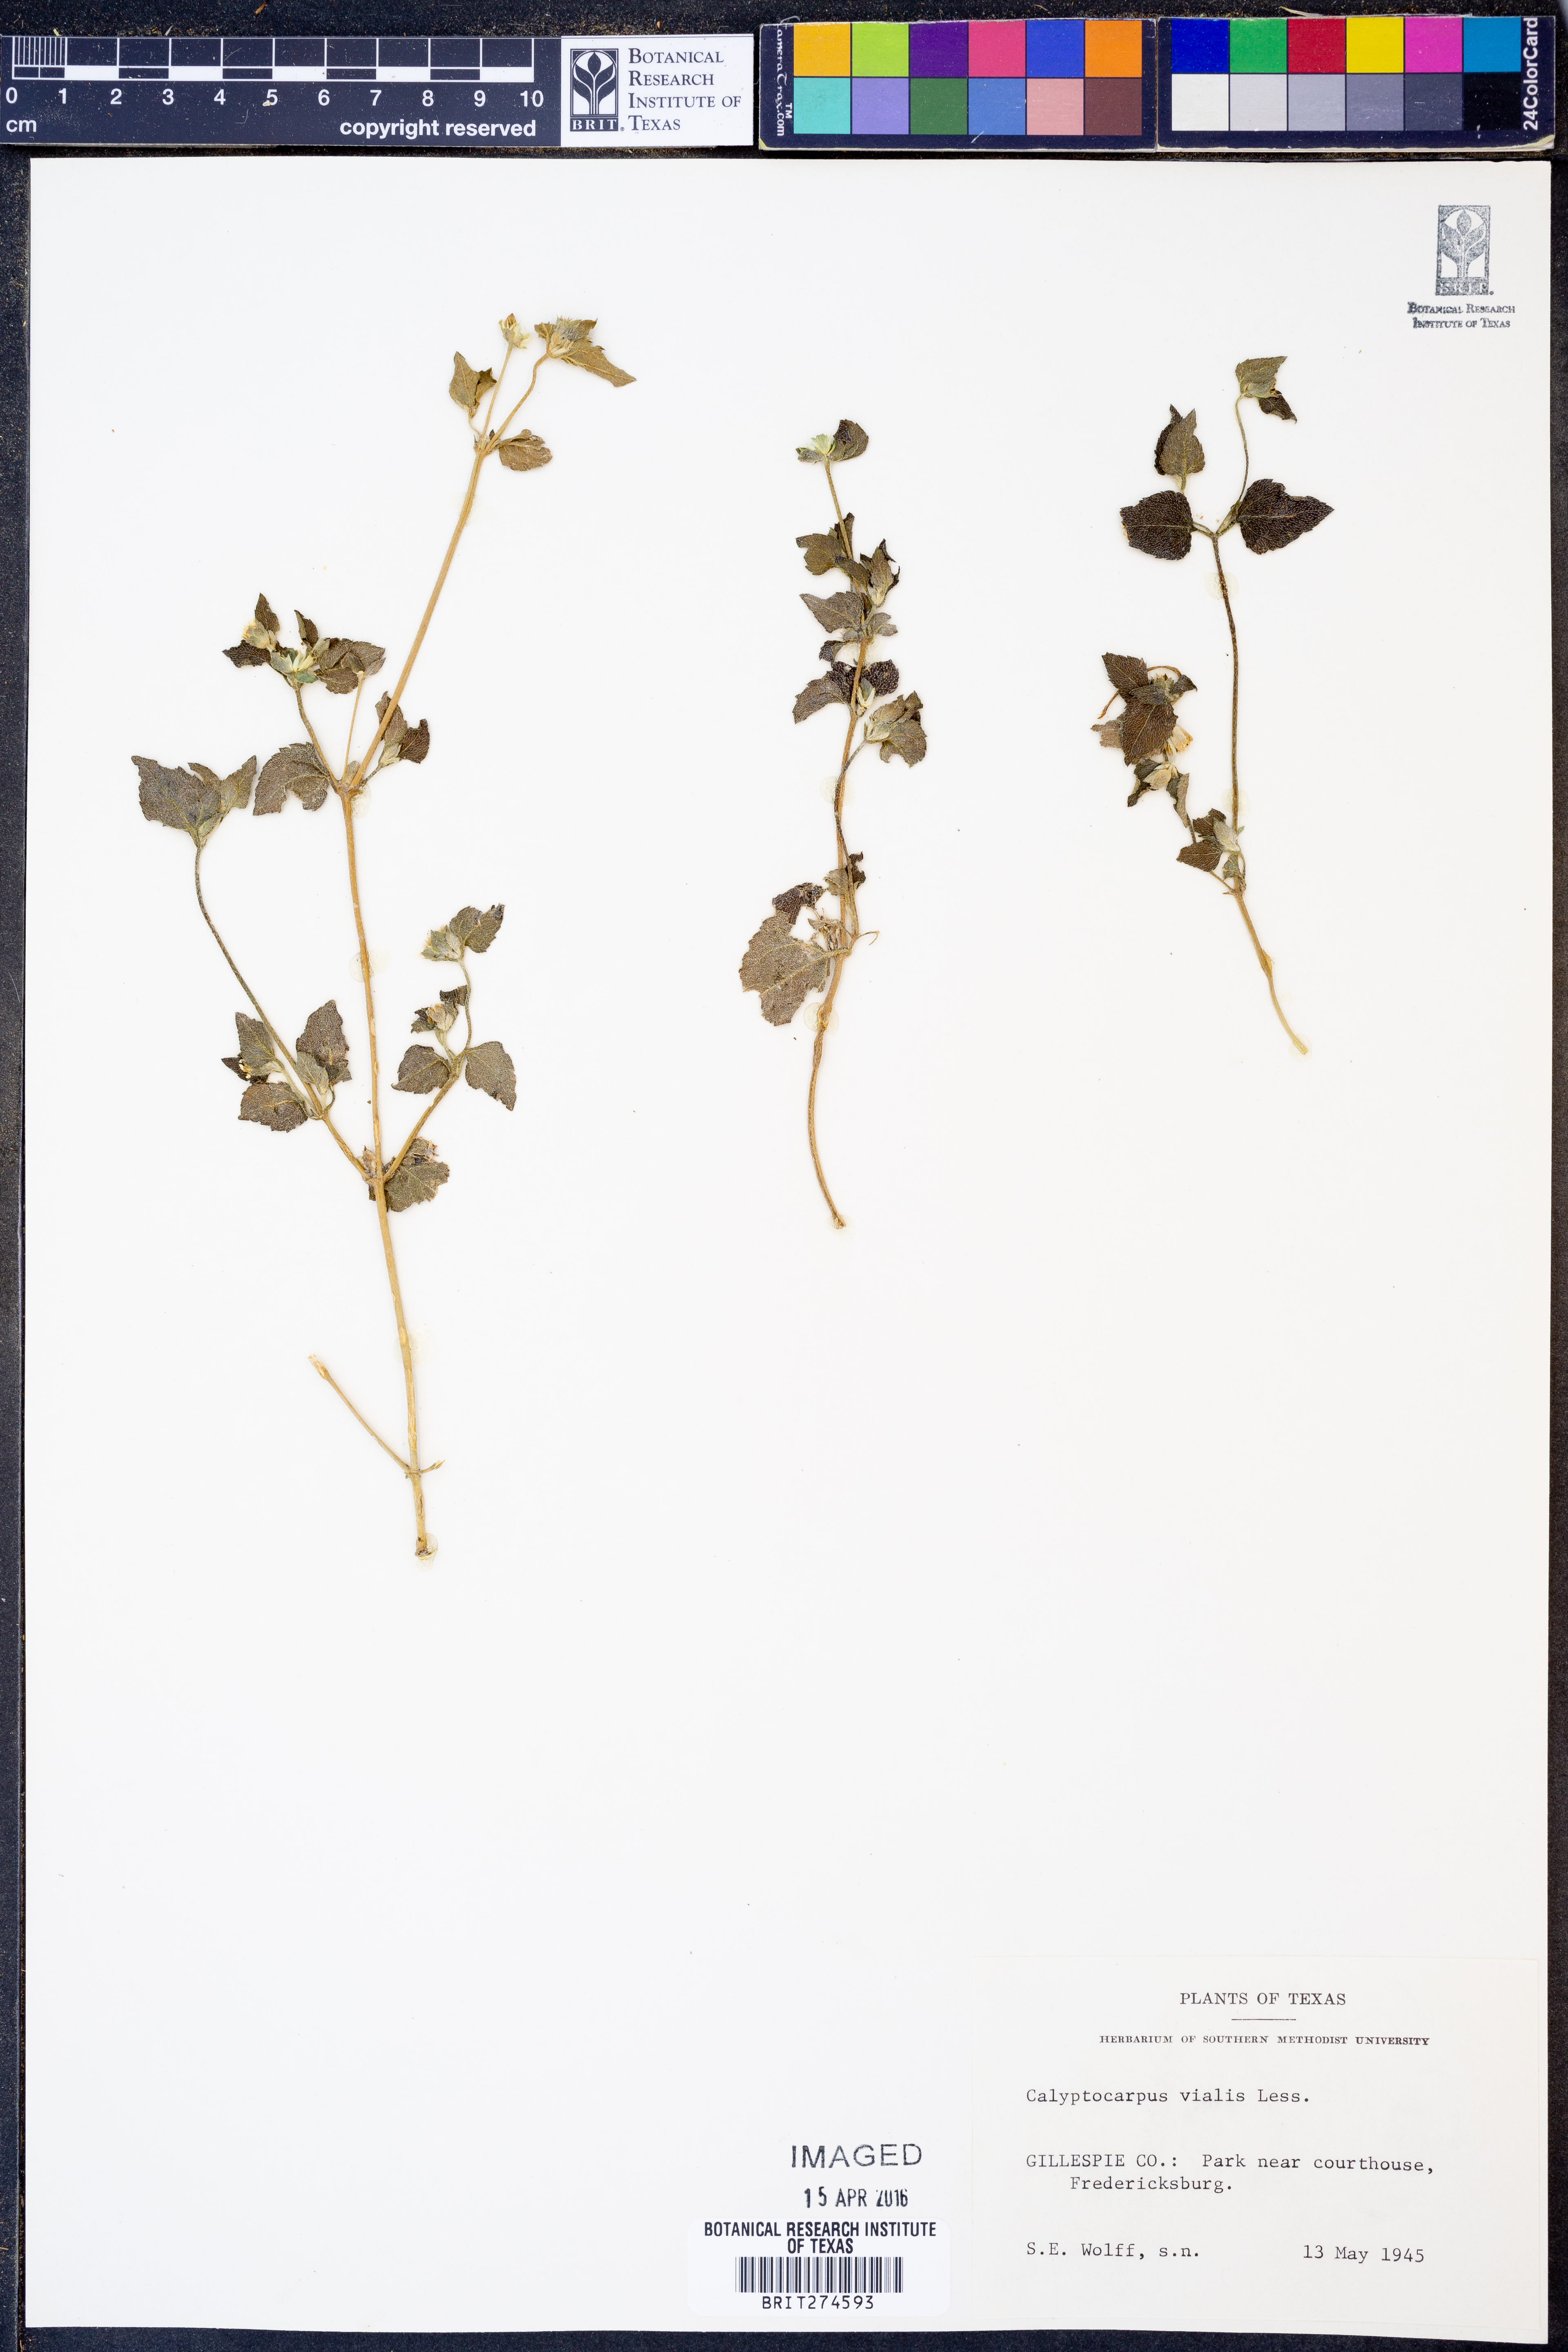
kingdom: Plantae
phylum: Tracheophyta
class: Magnoliopsida
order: Asterales
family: Asteraceae
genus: Calyptocarpus
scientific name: Calyptocarpus vialis
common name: Straggler daisy
